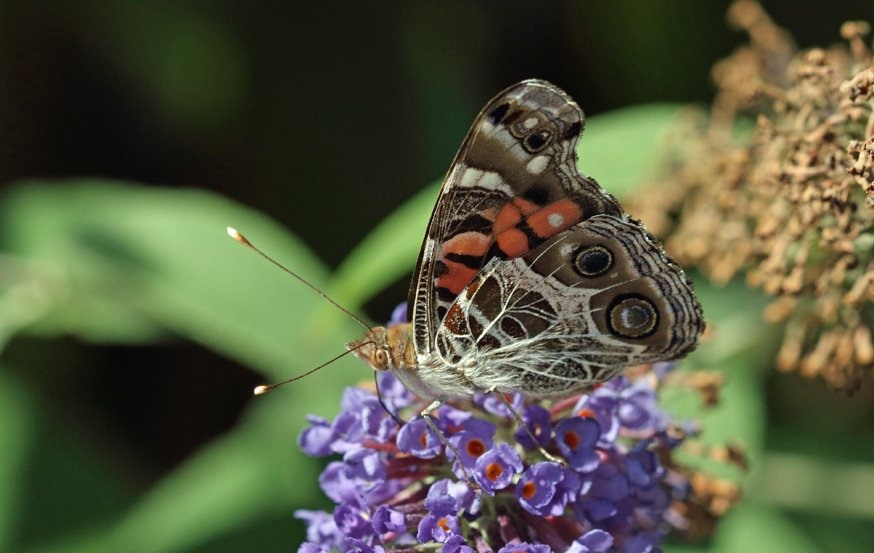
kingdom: Animalia
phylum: Arthropoda
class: Insecta
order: Lepidoptera
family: Nymphalidae
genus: Vanessa
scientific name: Vanessa virginiensis
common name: American Lady
